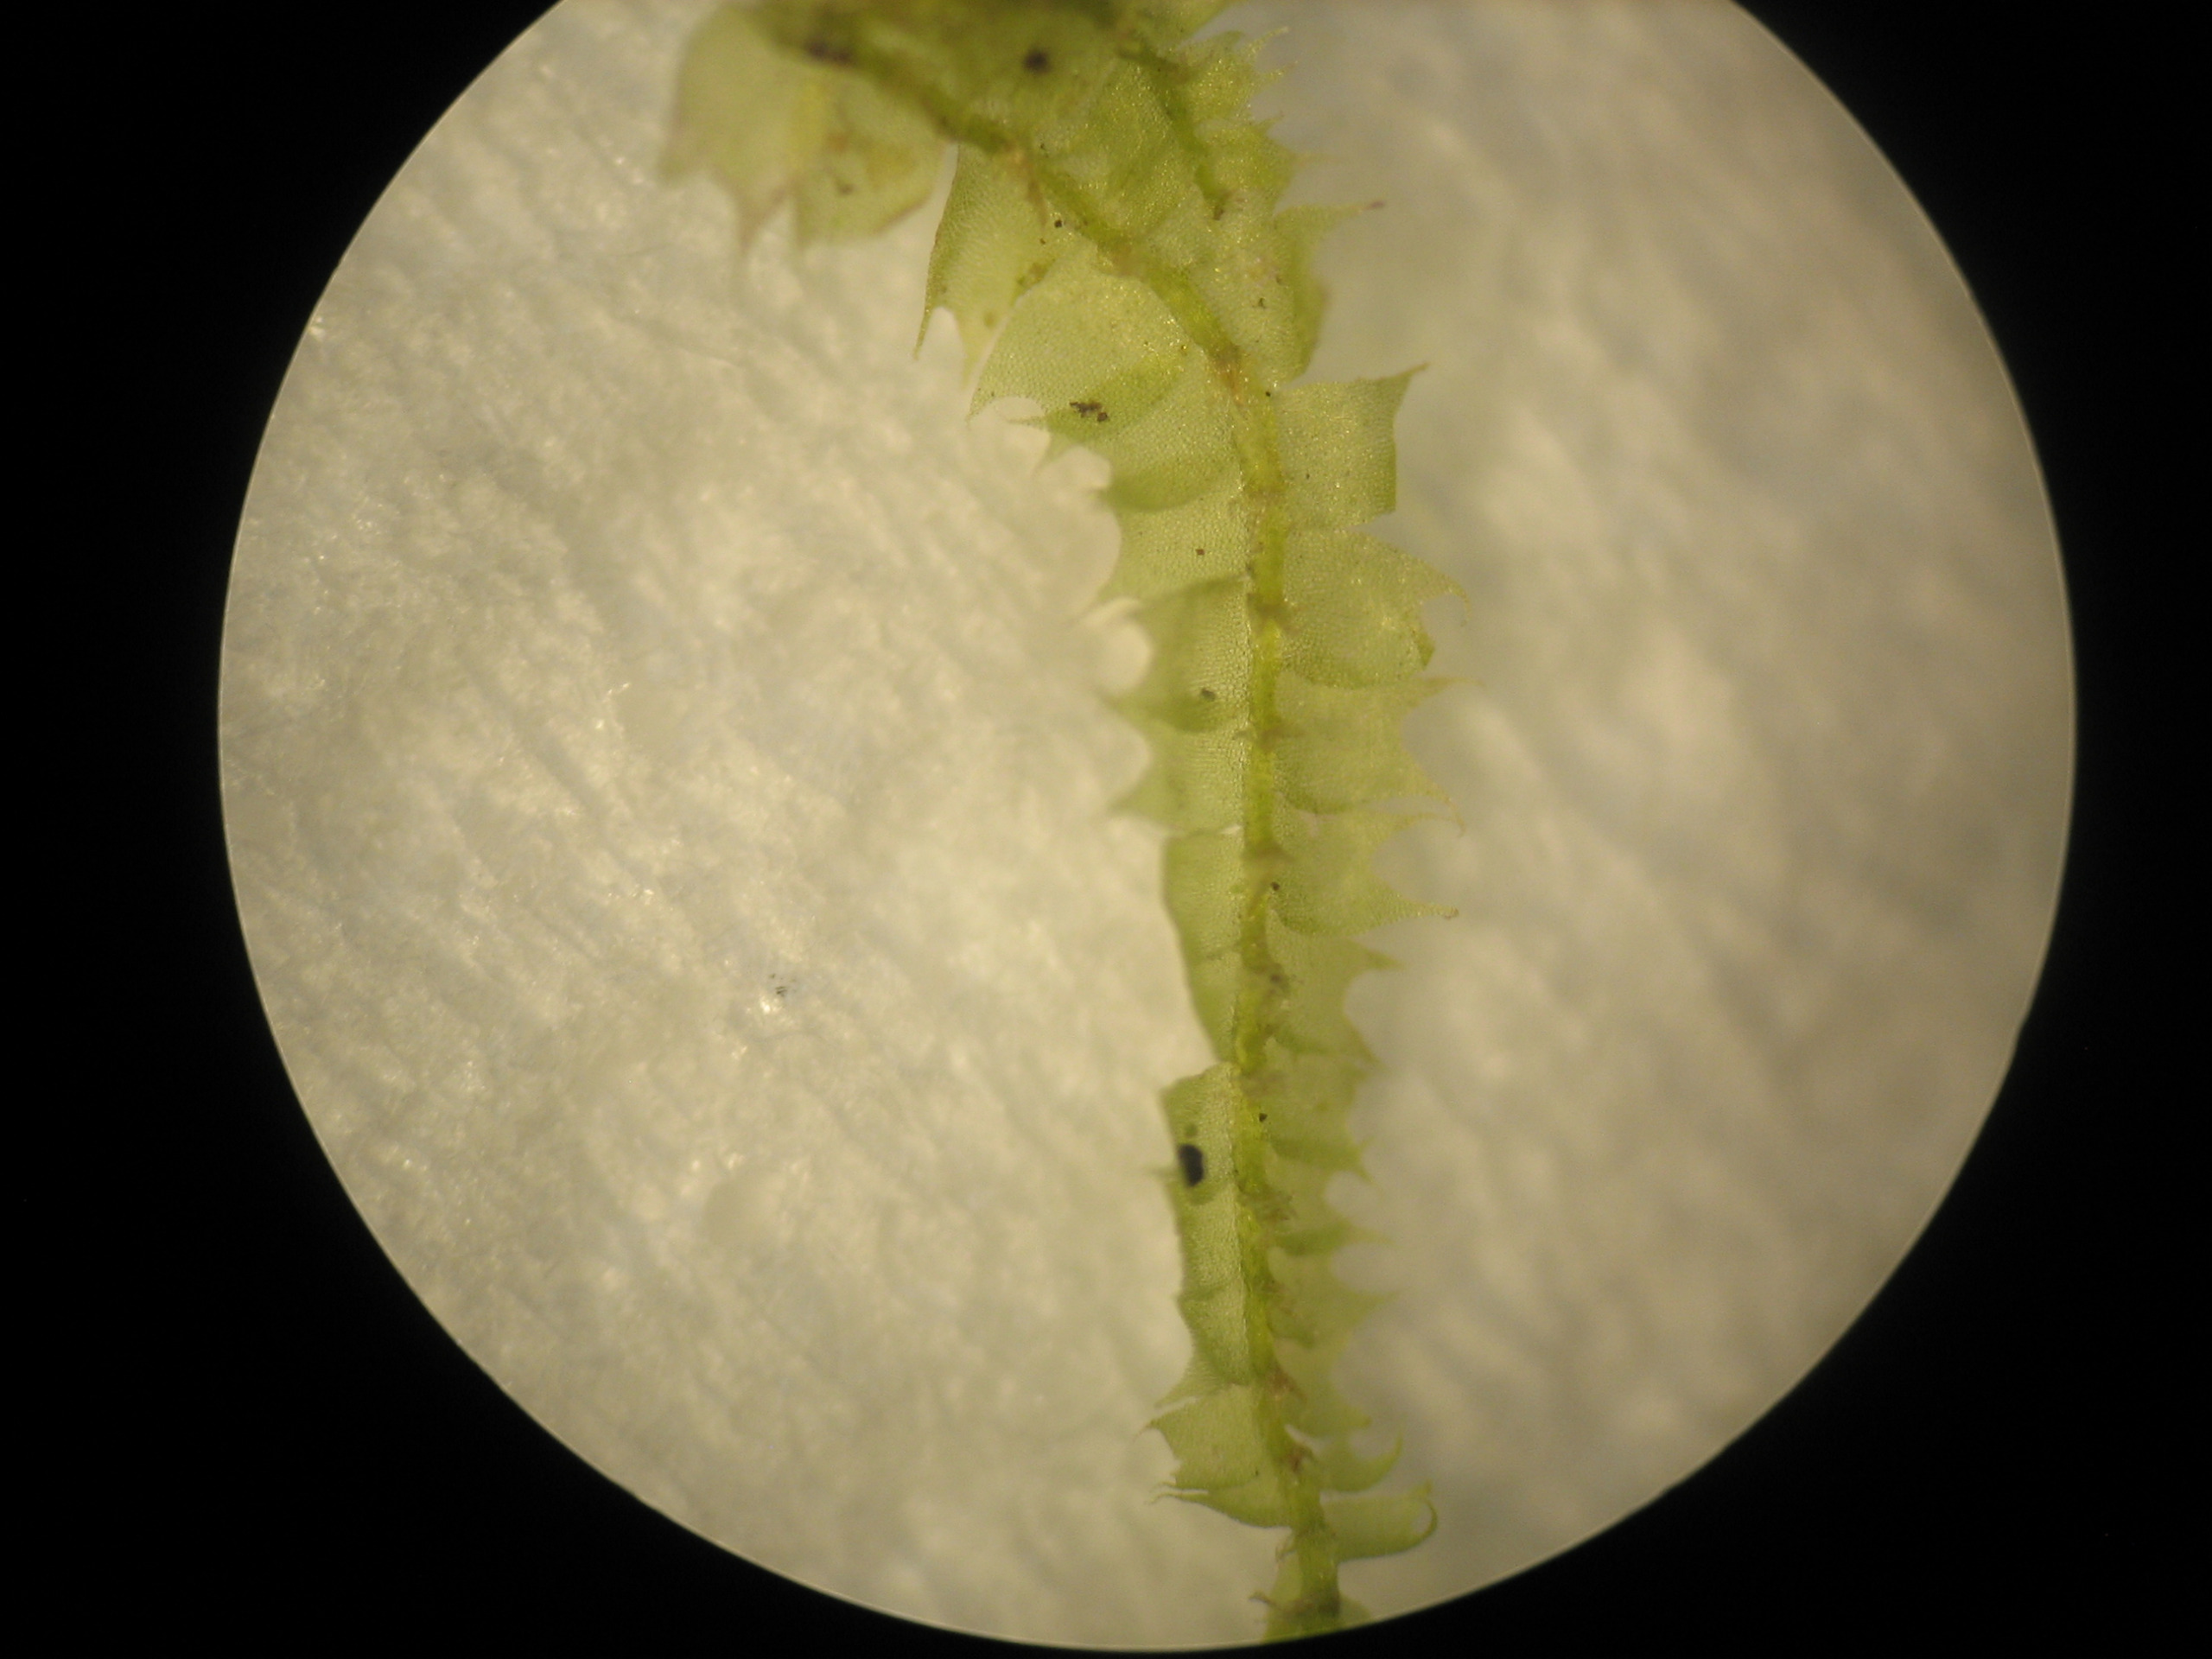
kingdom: Plantae
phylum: Marchantiophyta
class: Jungermanniopsida
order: Jungermanniales
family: Lophocoleaceae
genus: Lophocolea
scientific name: Lophocolea bidentata
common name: Sylspidset kamsvøb
